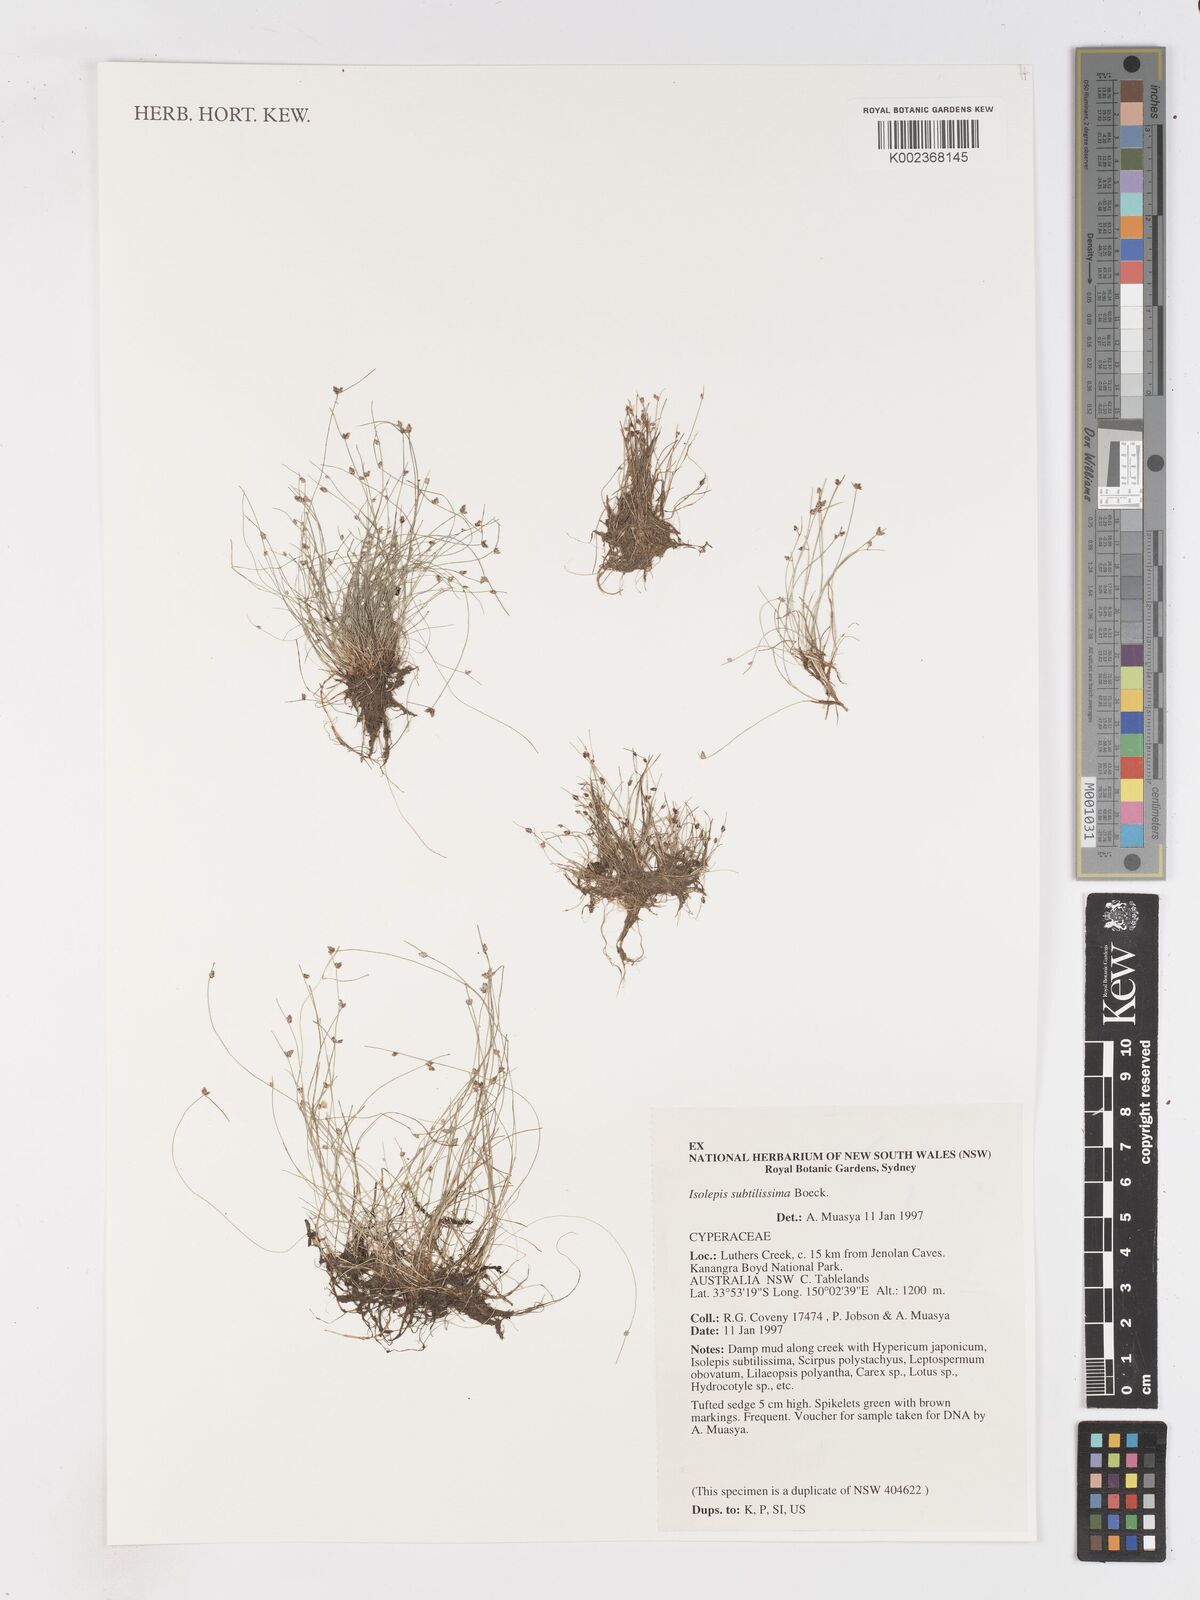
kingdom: Plantae
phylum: Tracheophyta
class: Liliopsida
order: Poales
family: Cyperaceae
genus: Isolepis
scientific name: Isolepis subtilissima
